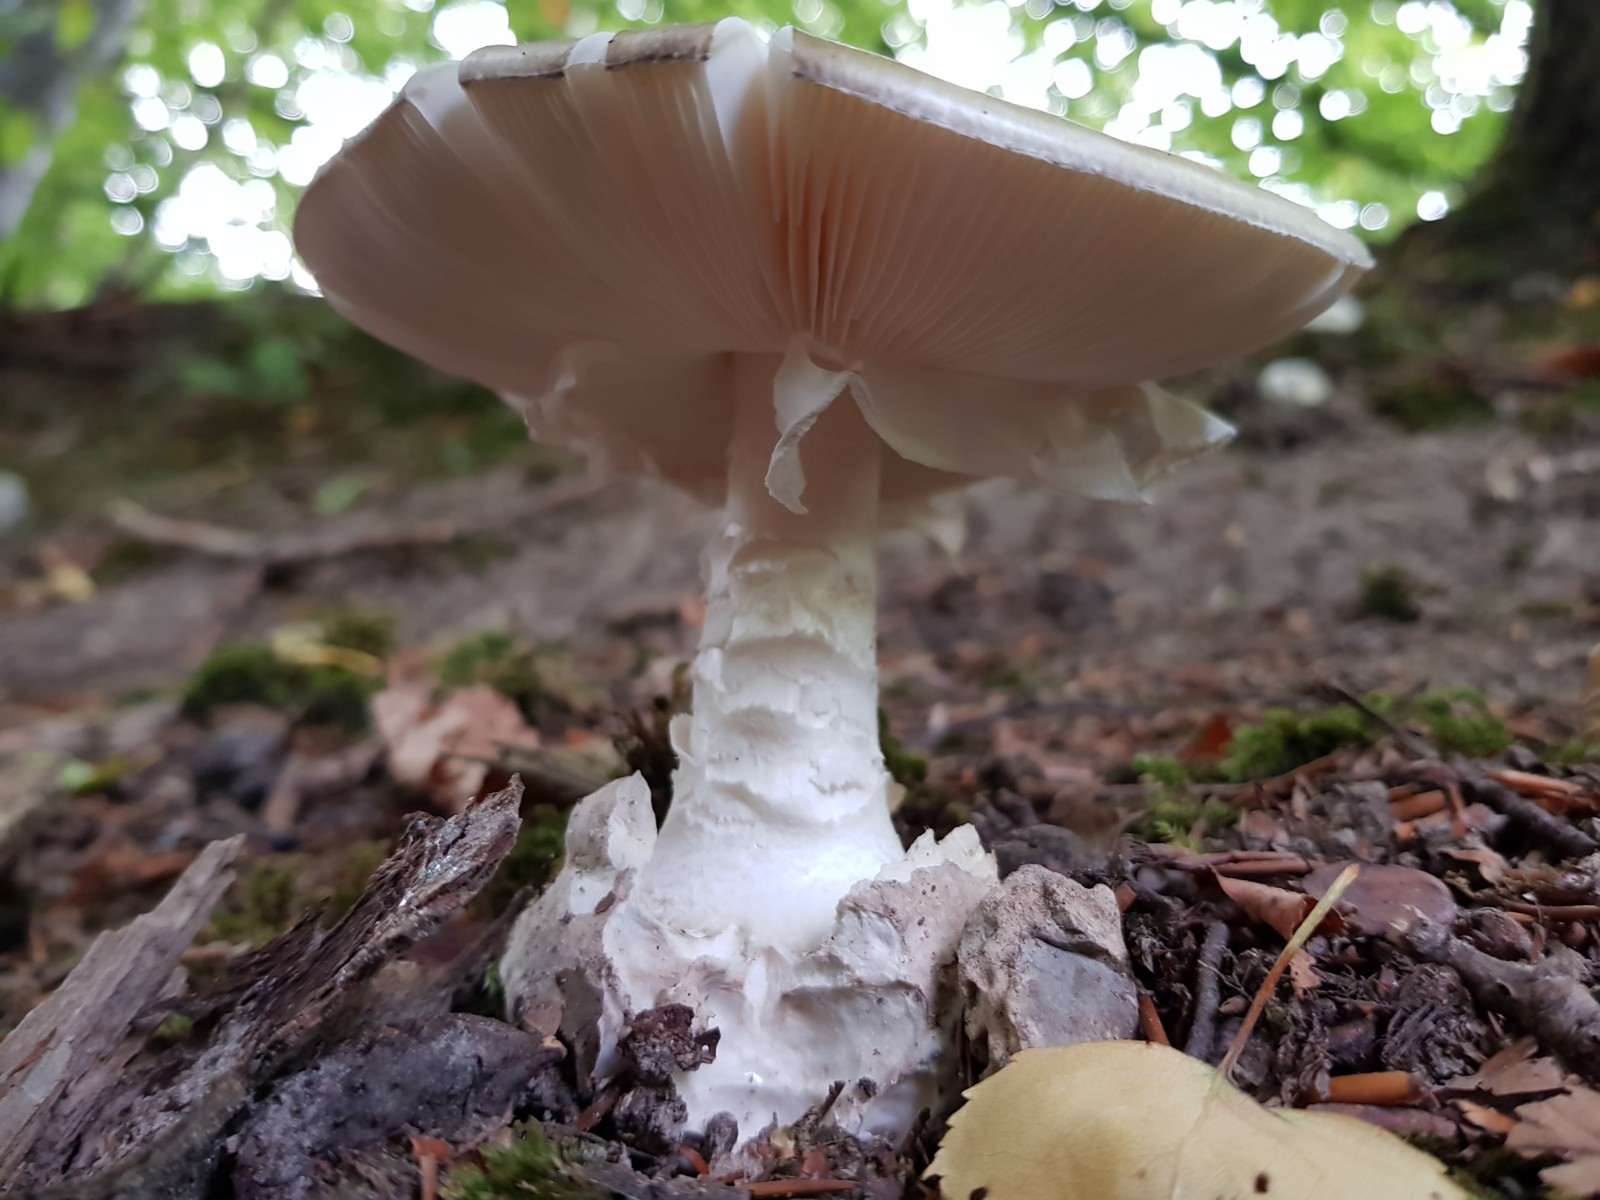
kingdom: Fungi
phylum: Basidiomycota
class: Agaricomycetes
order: Agaricales
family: Amanitaceae
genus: Amanita
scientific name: Amanita phalloides
